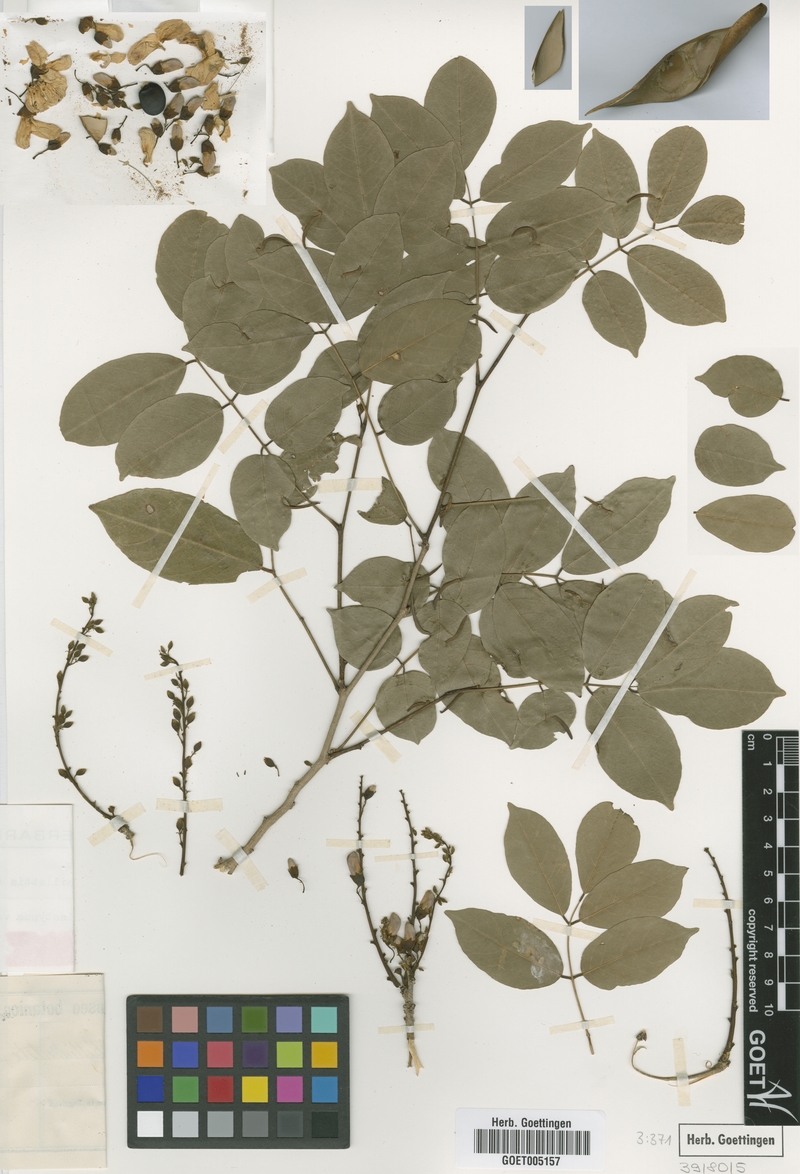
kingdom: Plantae
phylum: Tracheophyta
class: Magnoliopsida
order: Fabales
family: Fabaceae
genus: Millettia
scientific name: Millettia thonningii
